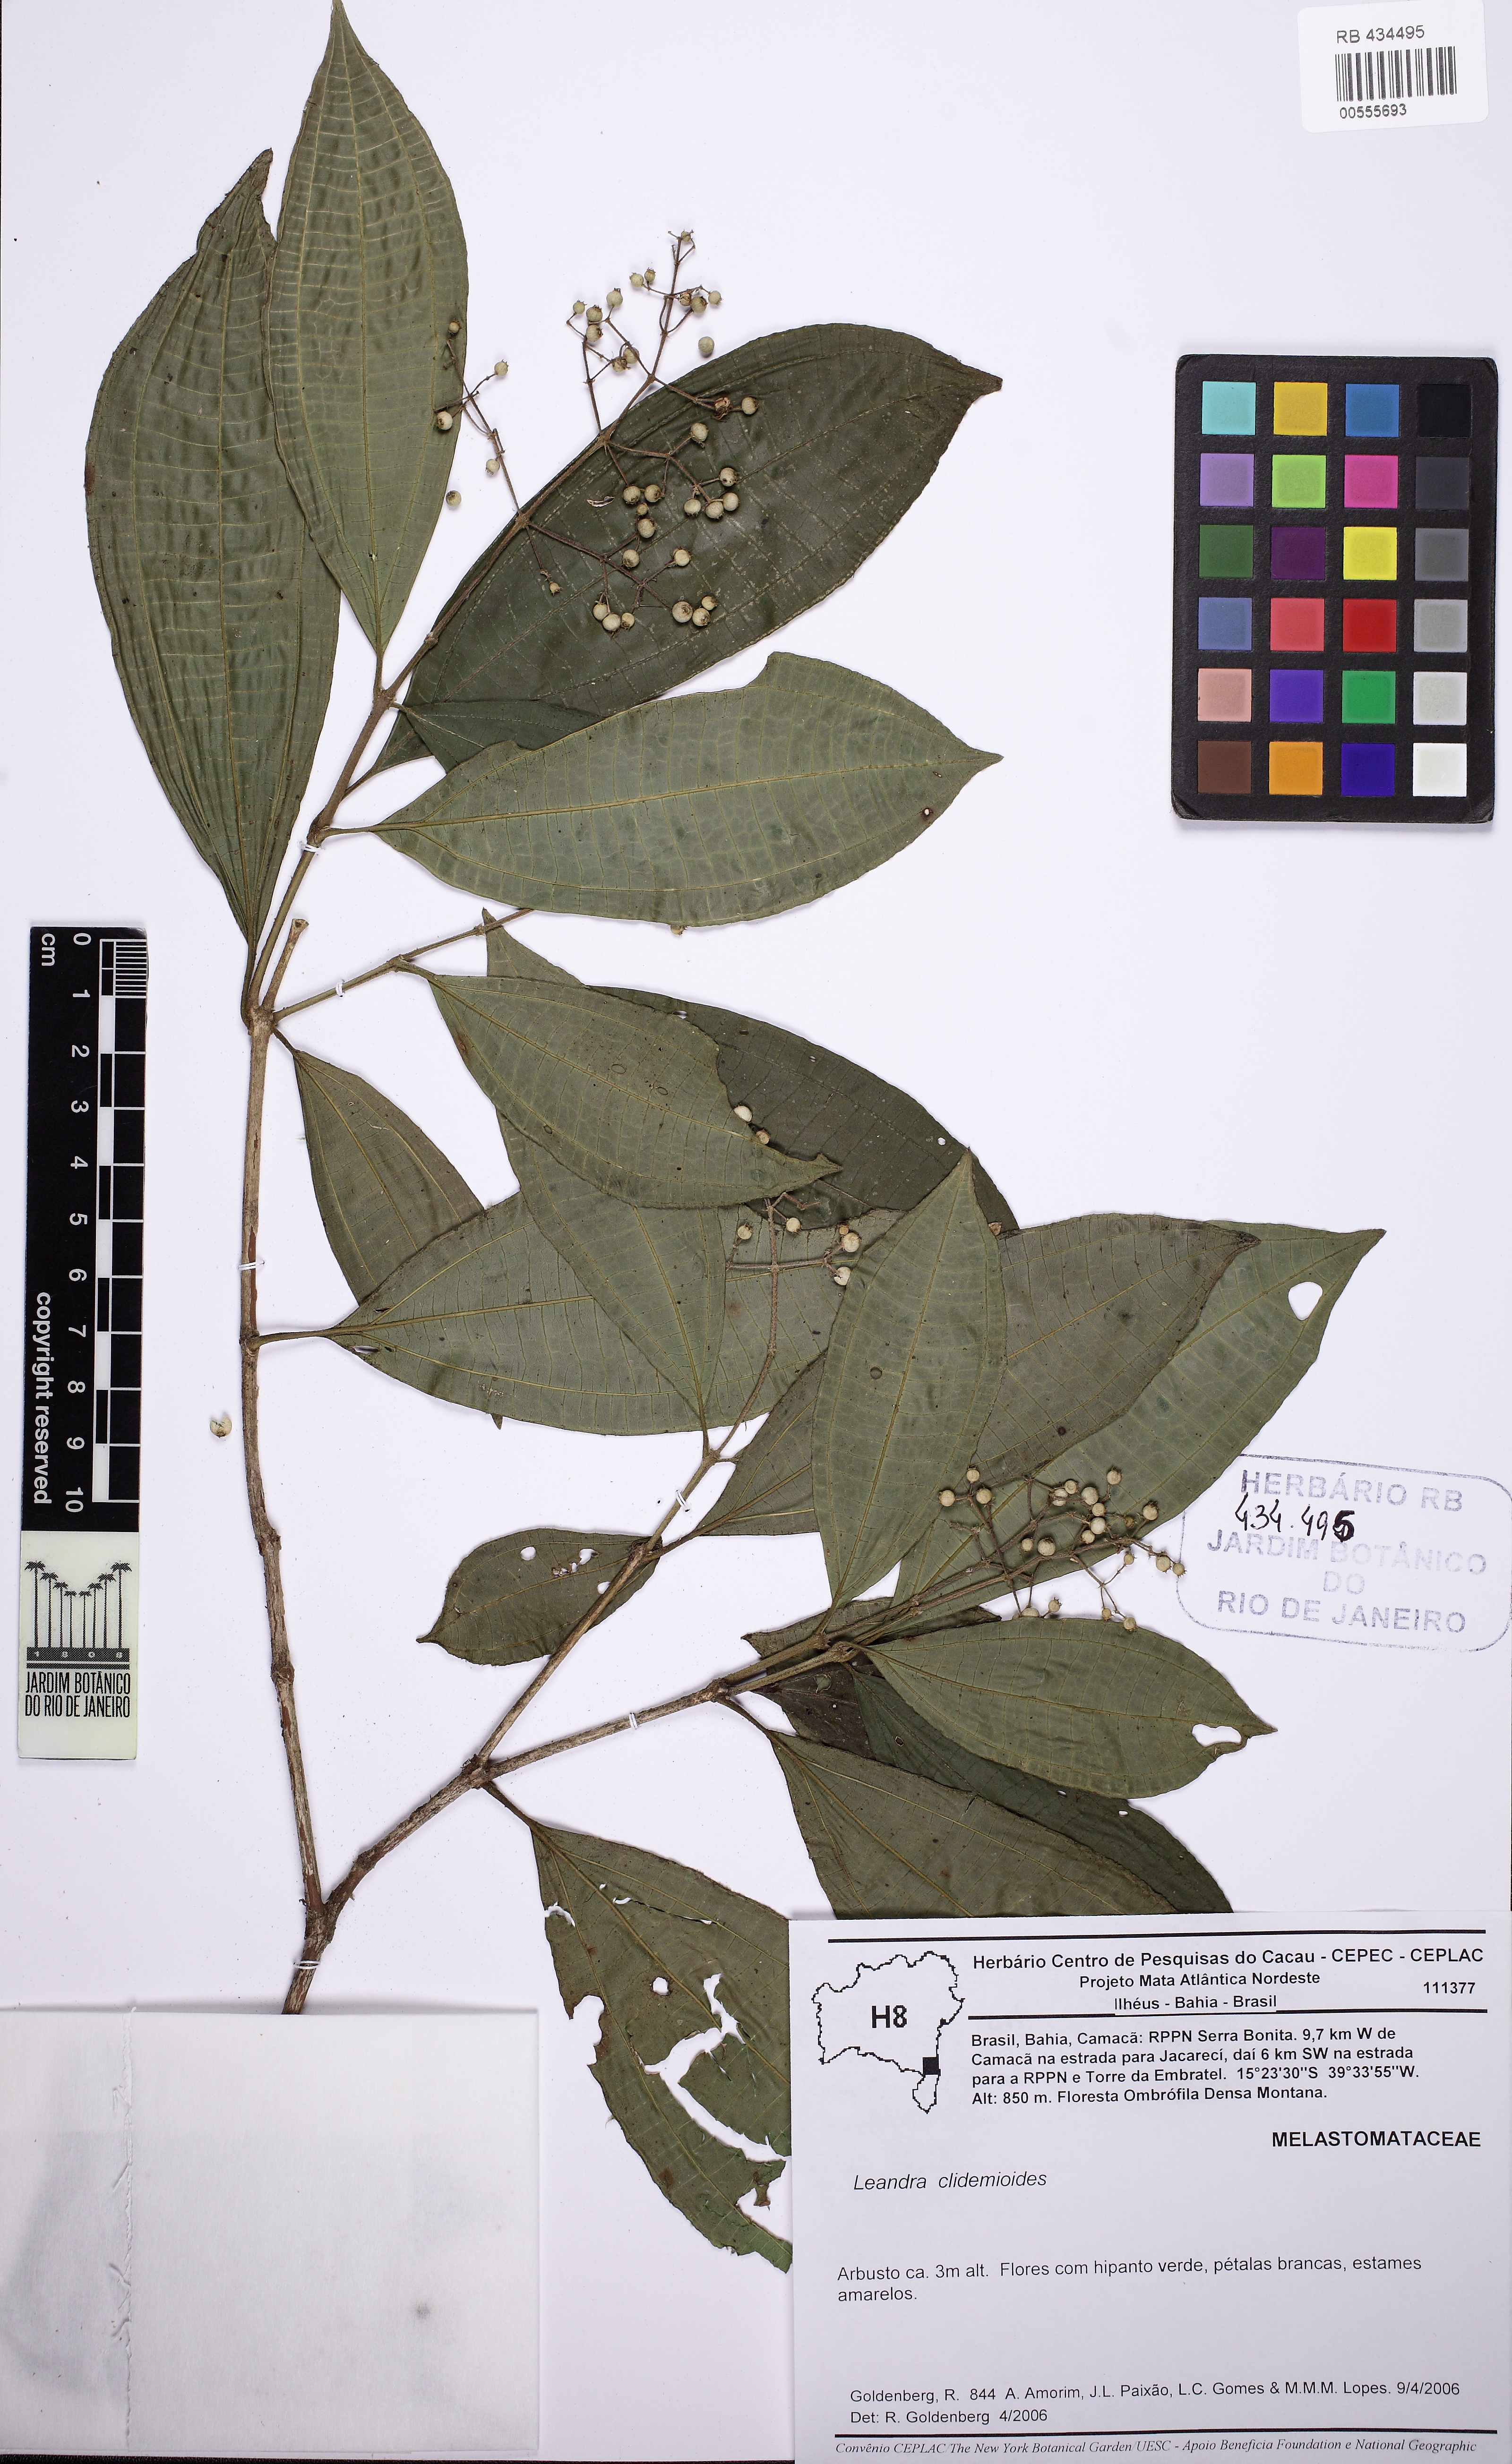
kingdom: Plantae
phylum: Tracheophyta
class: Magnoliopsida
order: Myrtales
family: Melastomataceae
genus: Miconia
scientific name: Miconia stenopetala
